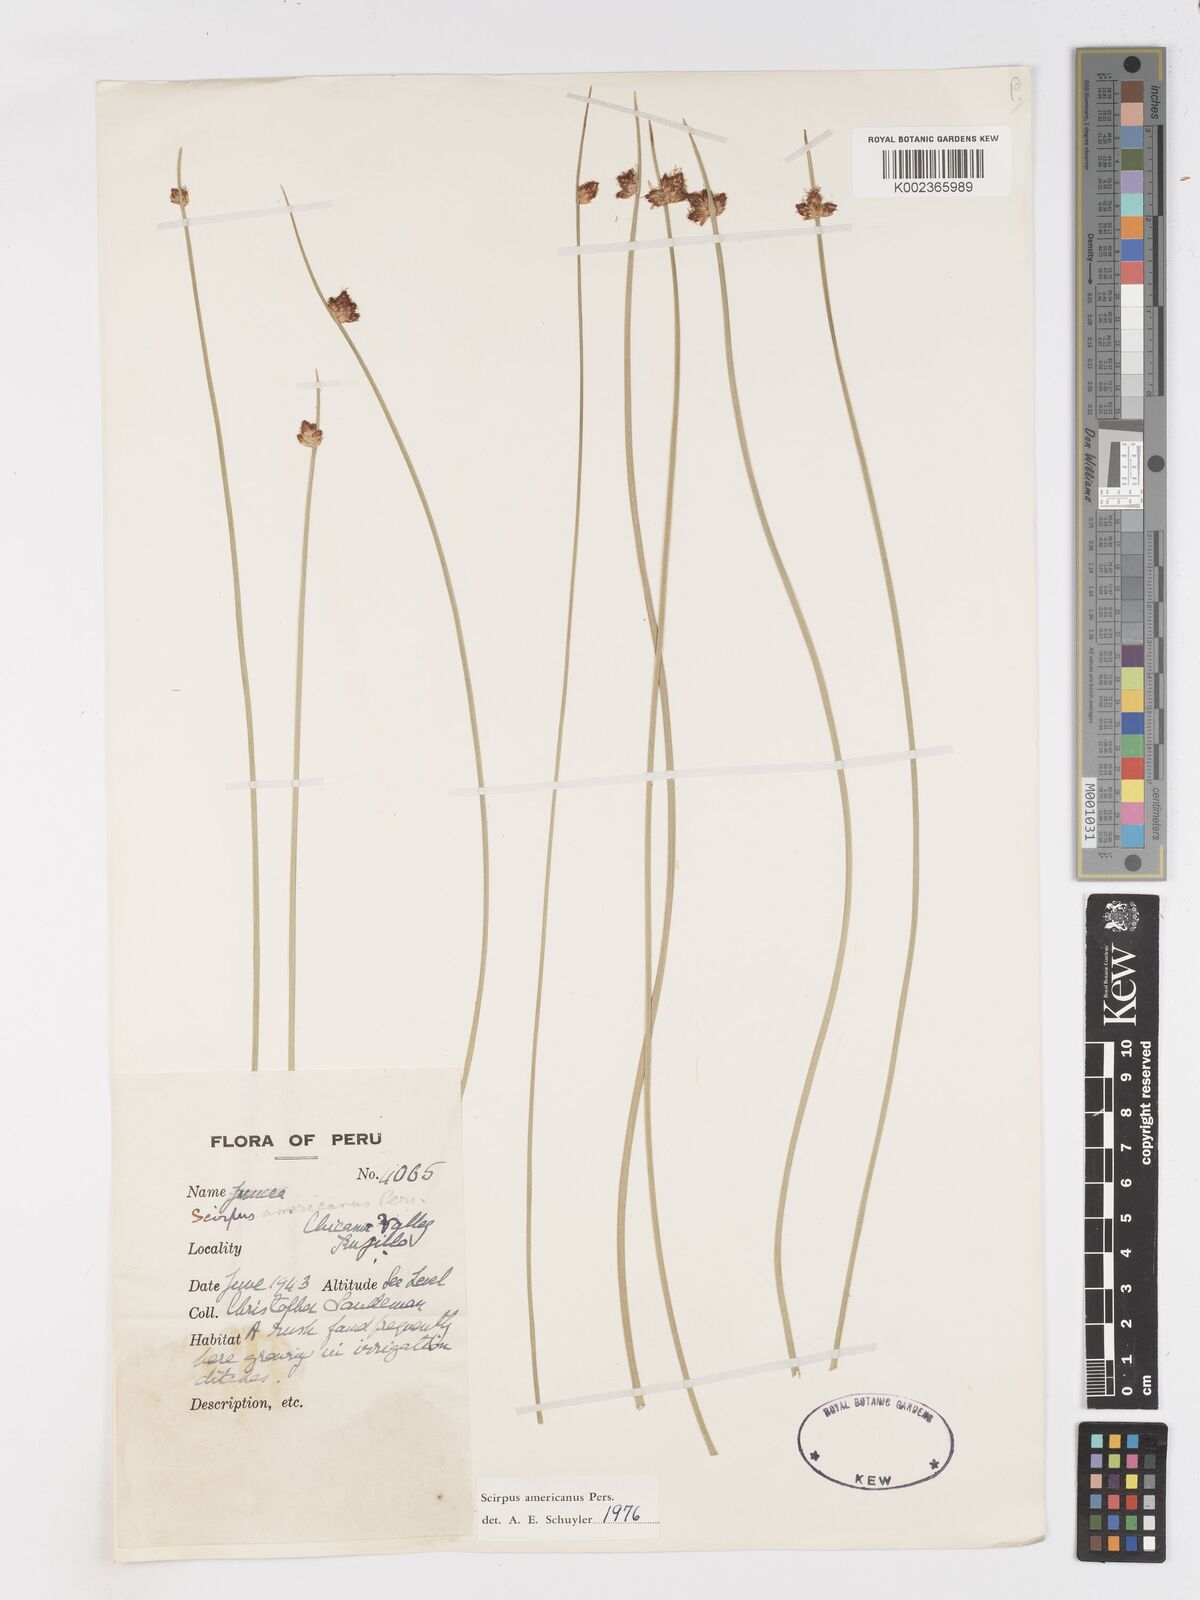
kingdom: Plantae
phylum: Tracheophyta
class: Liliopsida
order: Poales
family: Cyperaceae
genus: Schoenoplectus
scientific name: Schoenoplectus americanus
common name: American three-square bulrush
